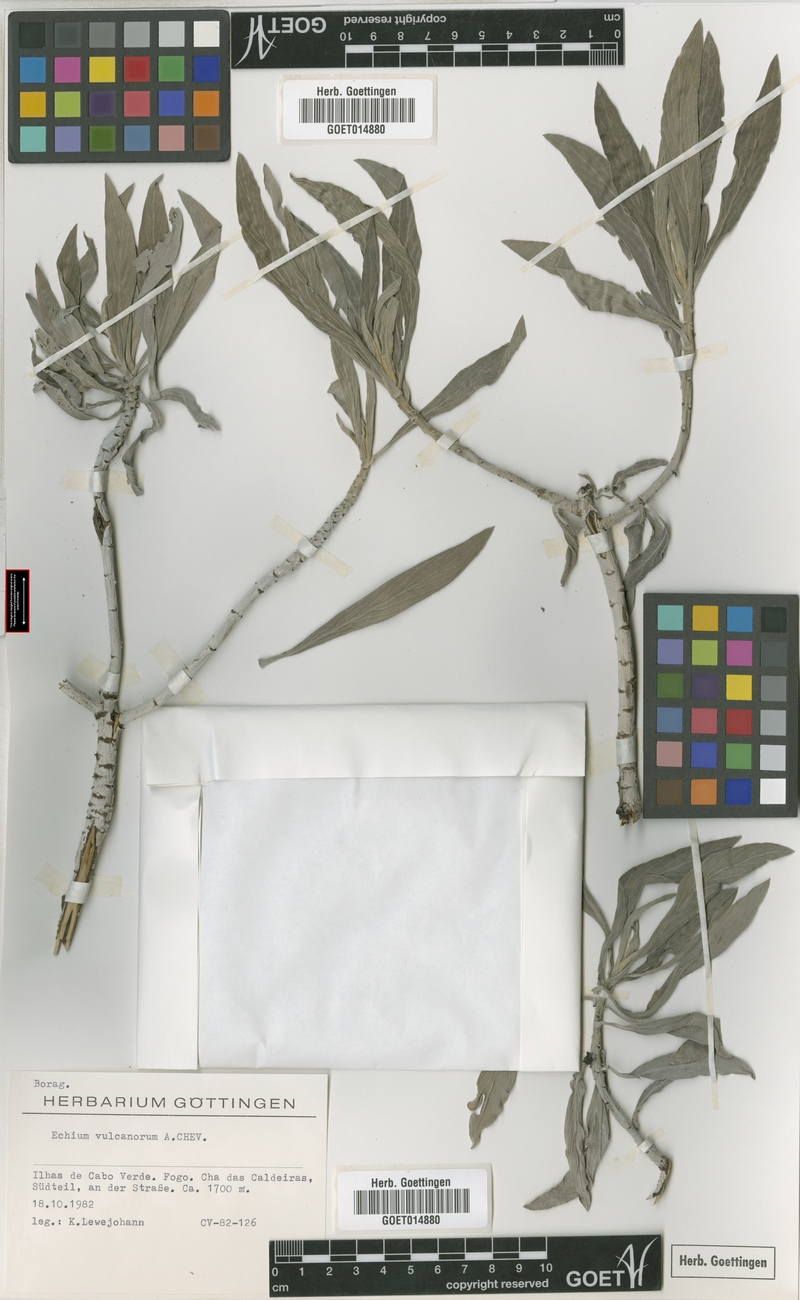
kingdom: Plantae
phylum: Tracheophyta
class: Magnoliopsida
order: Boraginales
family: Boraginaceae
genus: Echium
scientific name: Echium vulcanorum
